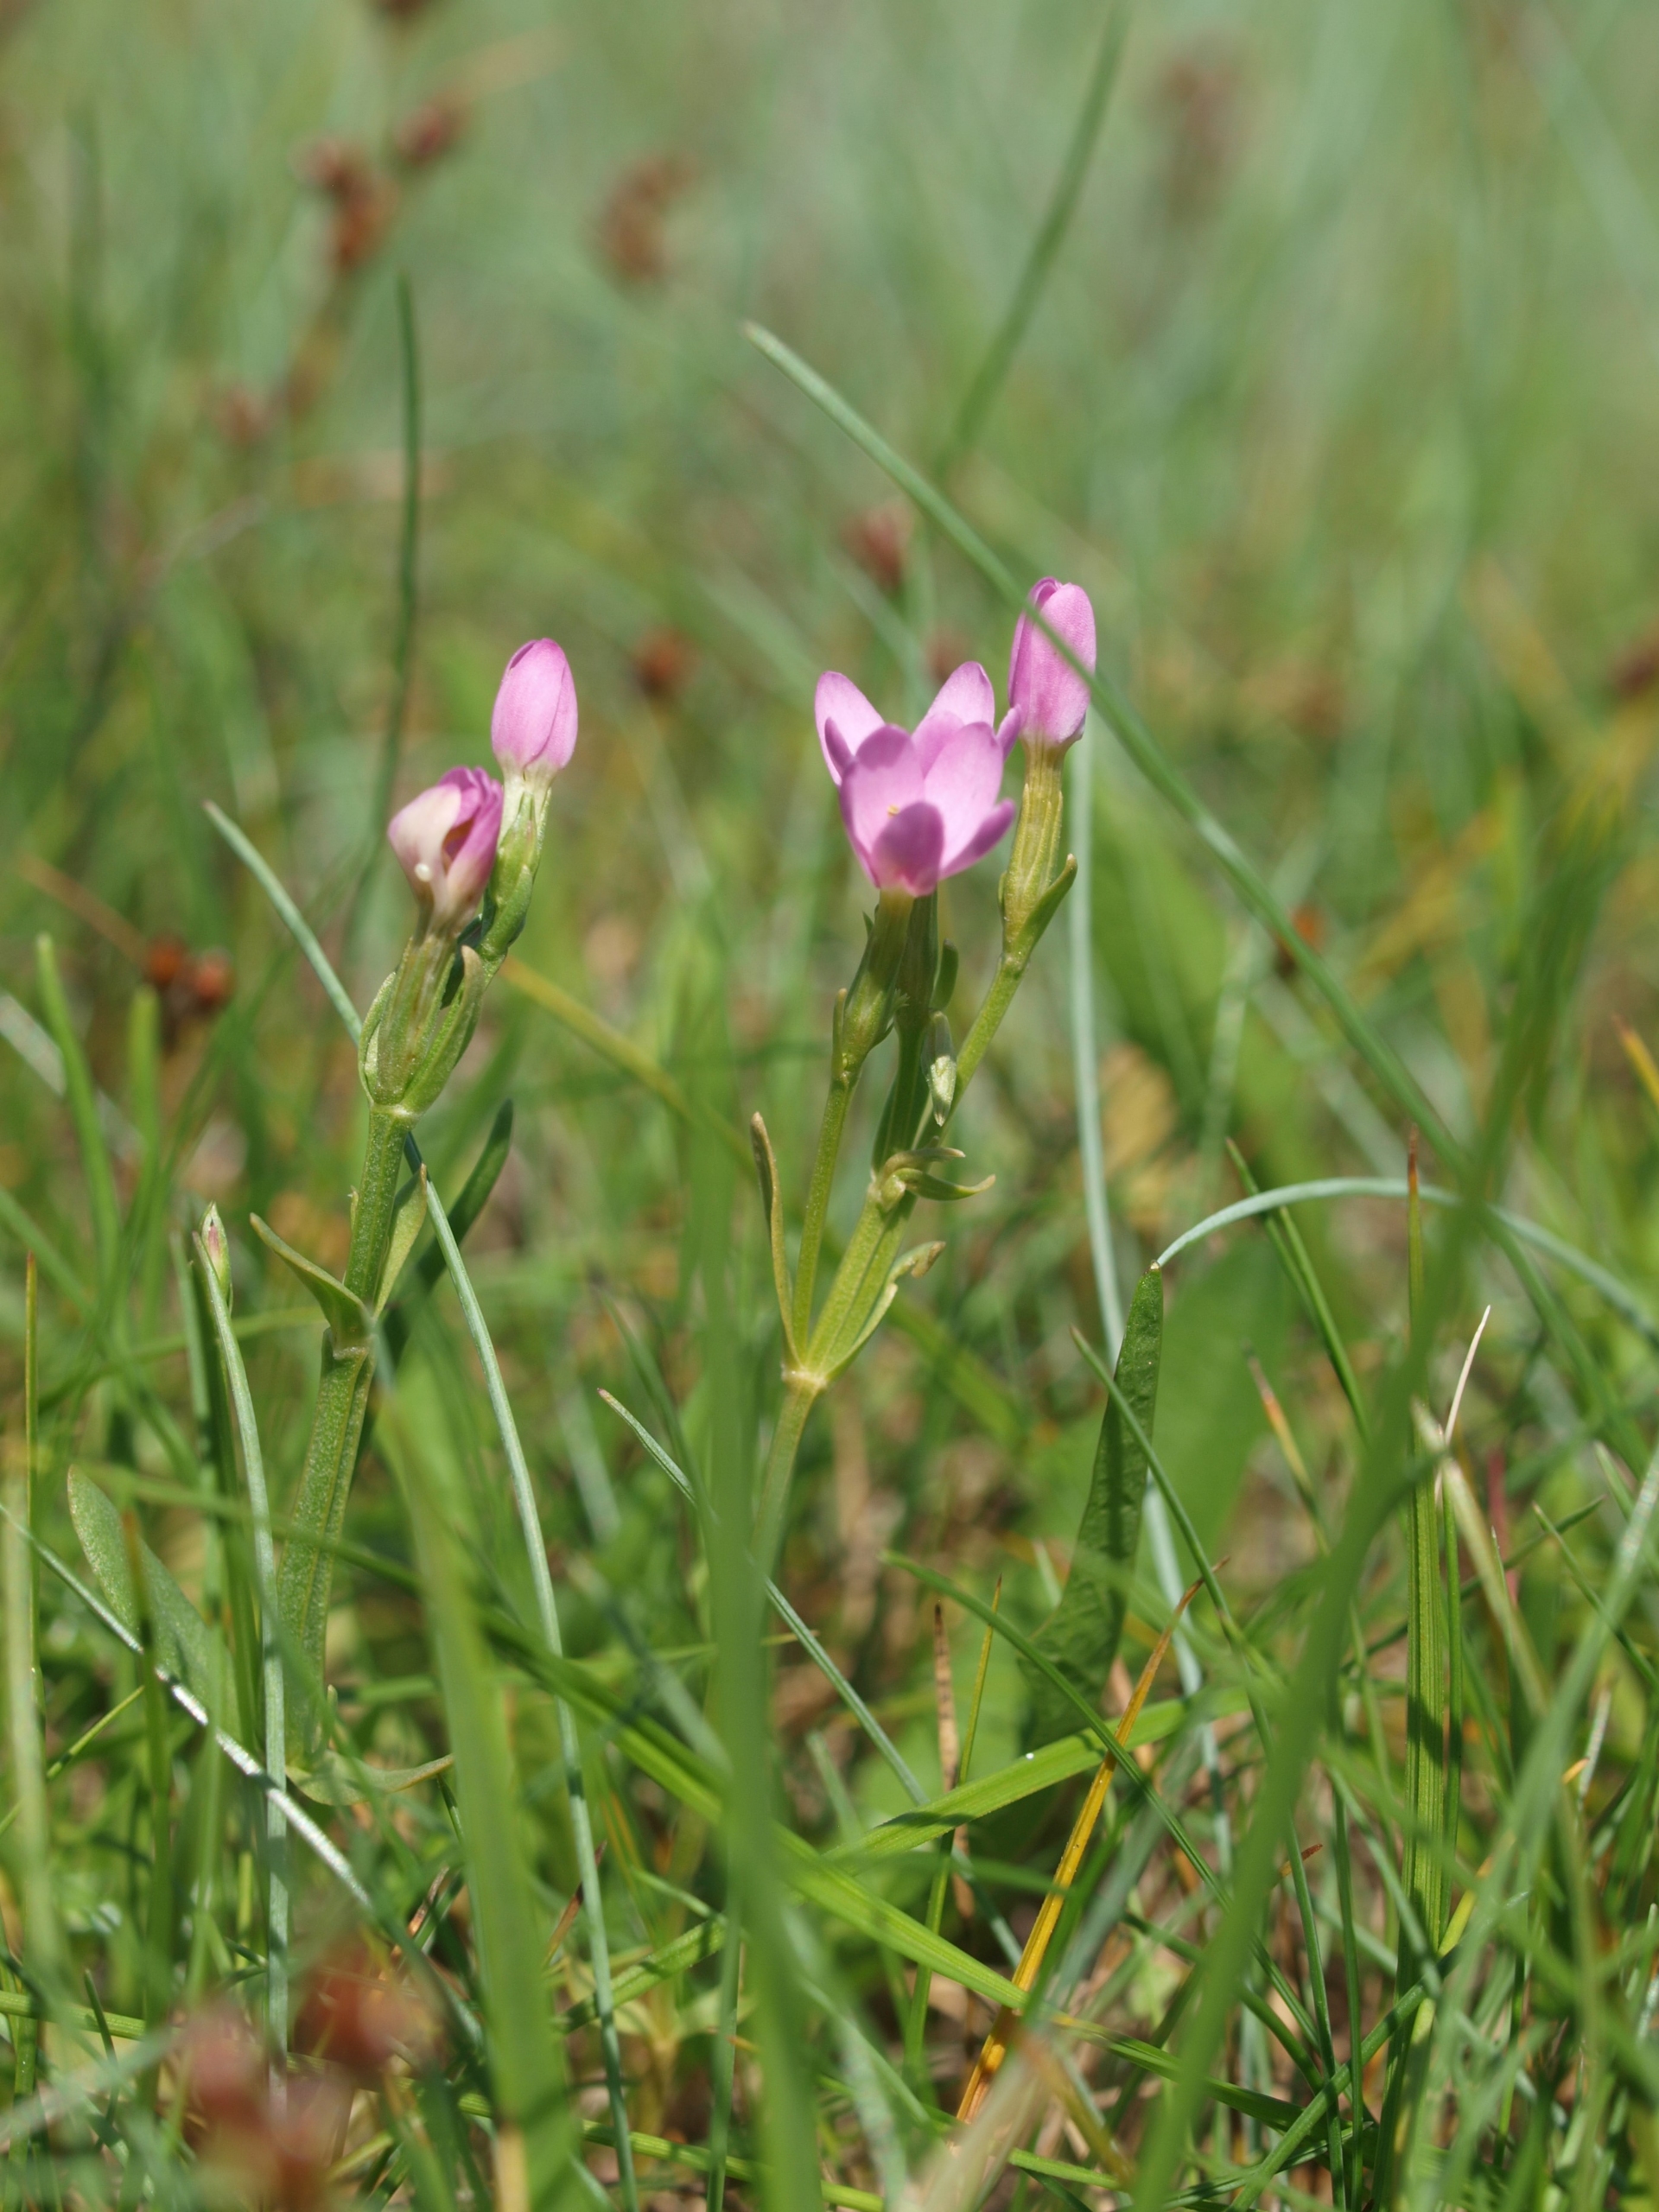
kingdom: Plantae
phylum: Tracheophyta
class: Magnoliopsida
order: Gentianales
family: Gentianaceae
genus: Centaurium
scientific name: Centaurium littorale
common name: Strand-tusindgylden
